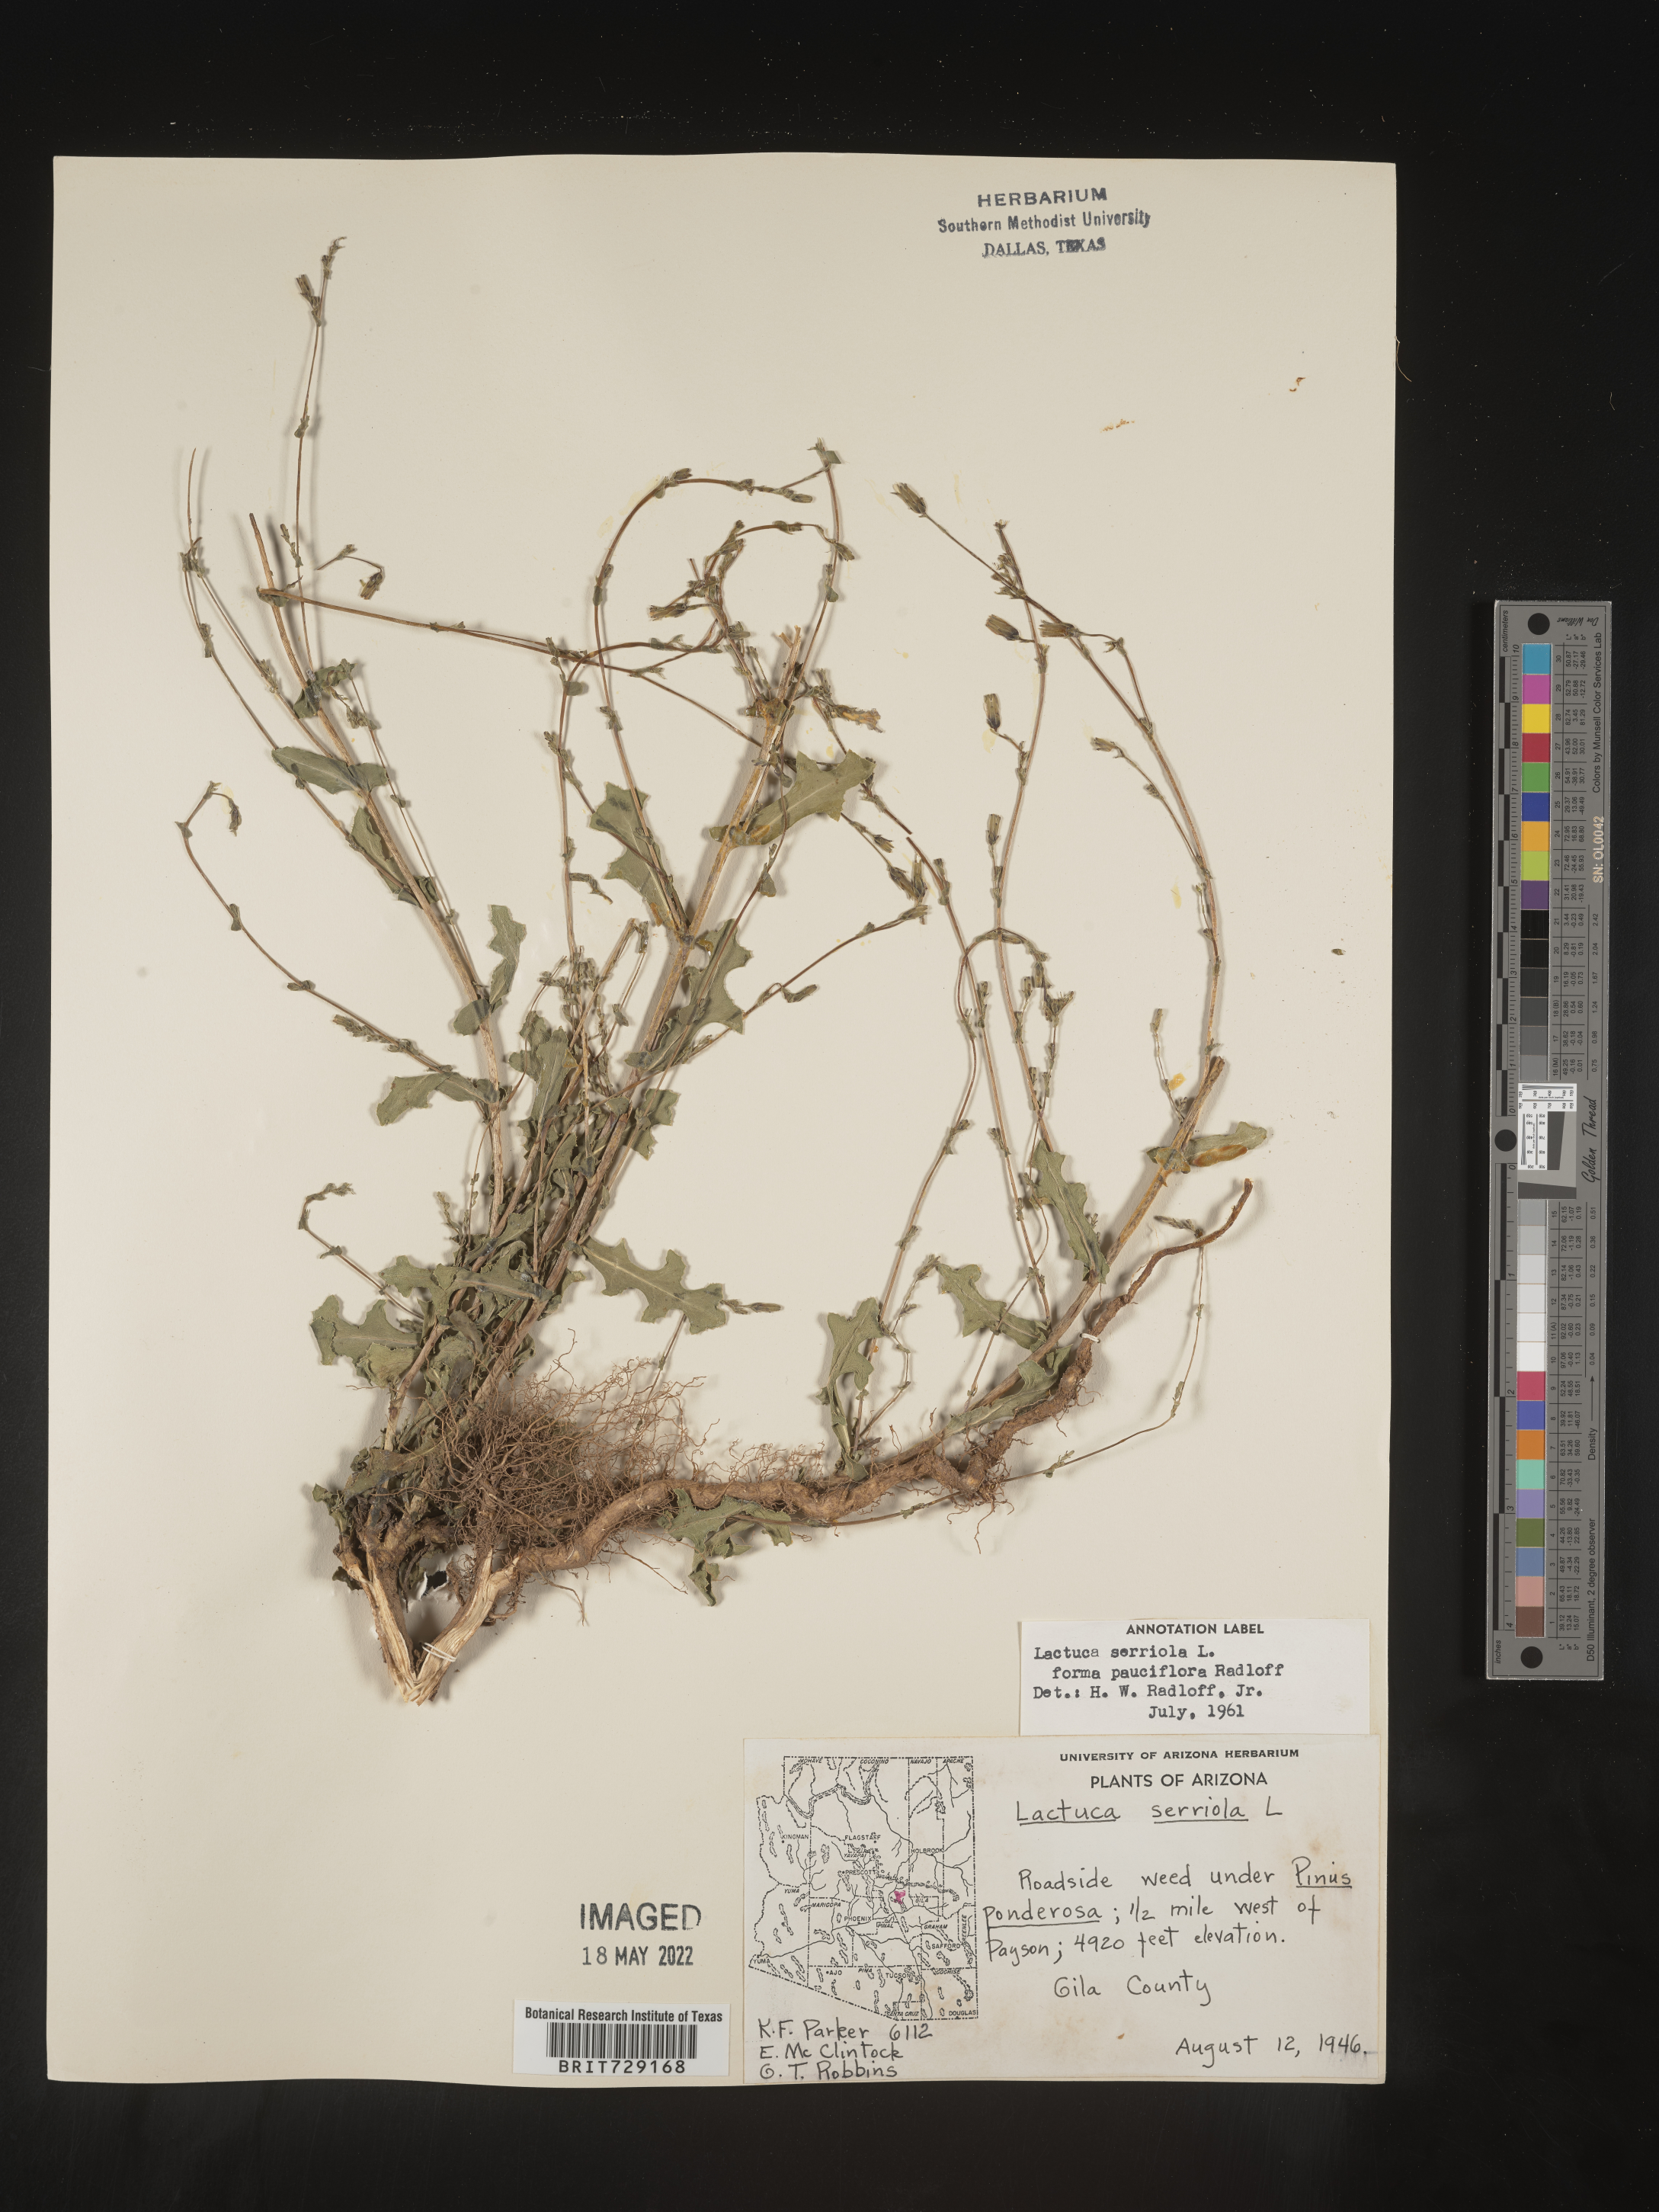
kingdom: Plantae
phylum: Tracheophyta
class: Magnoliopsida
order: Asterales
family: Asteraceae
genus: Lactuca
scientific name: Lactuca serriola
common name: Prickly lettuce
